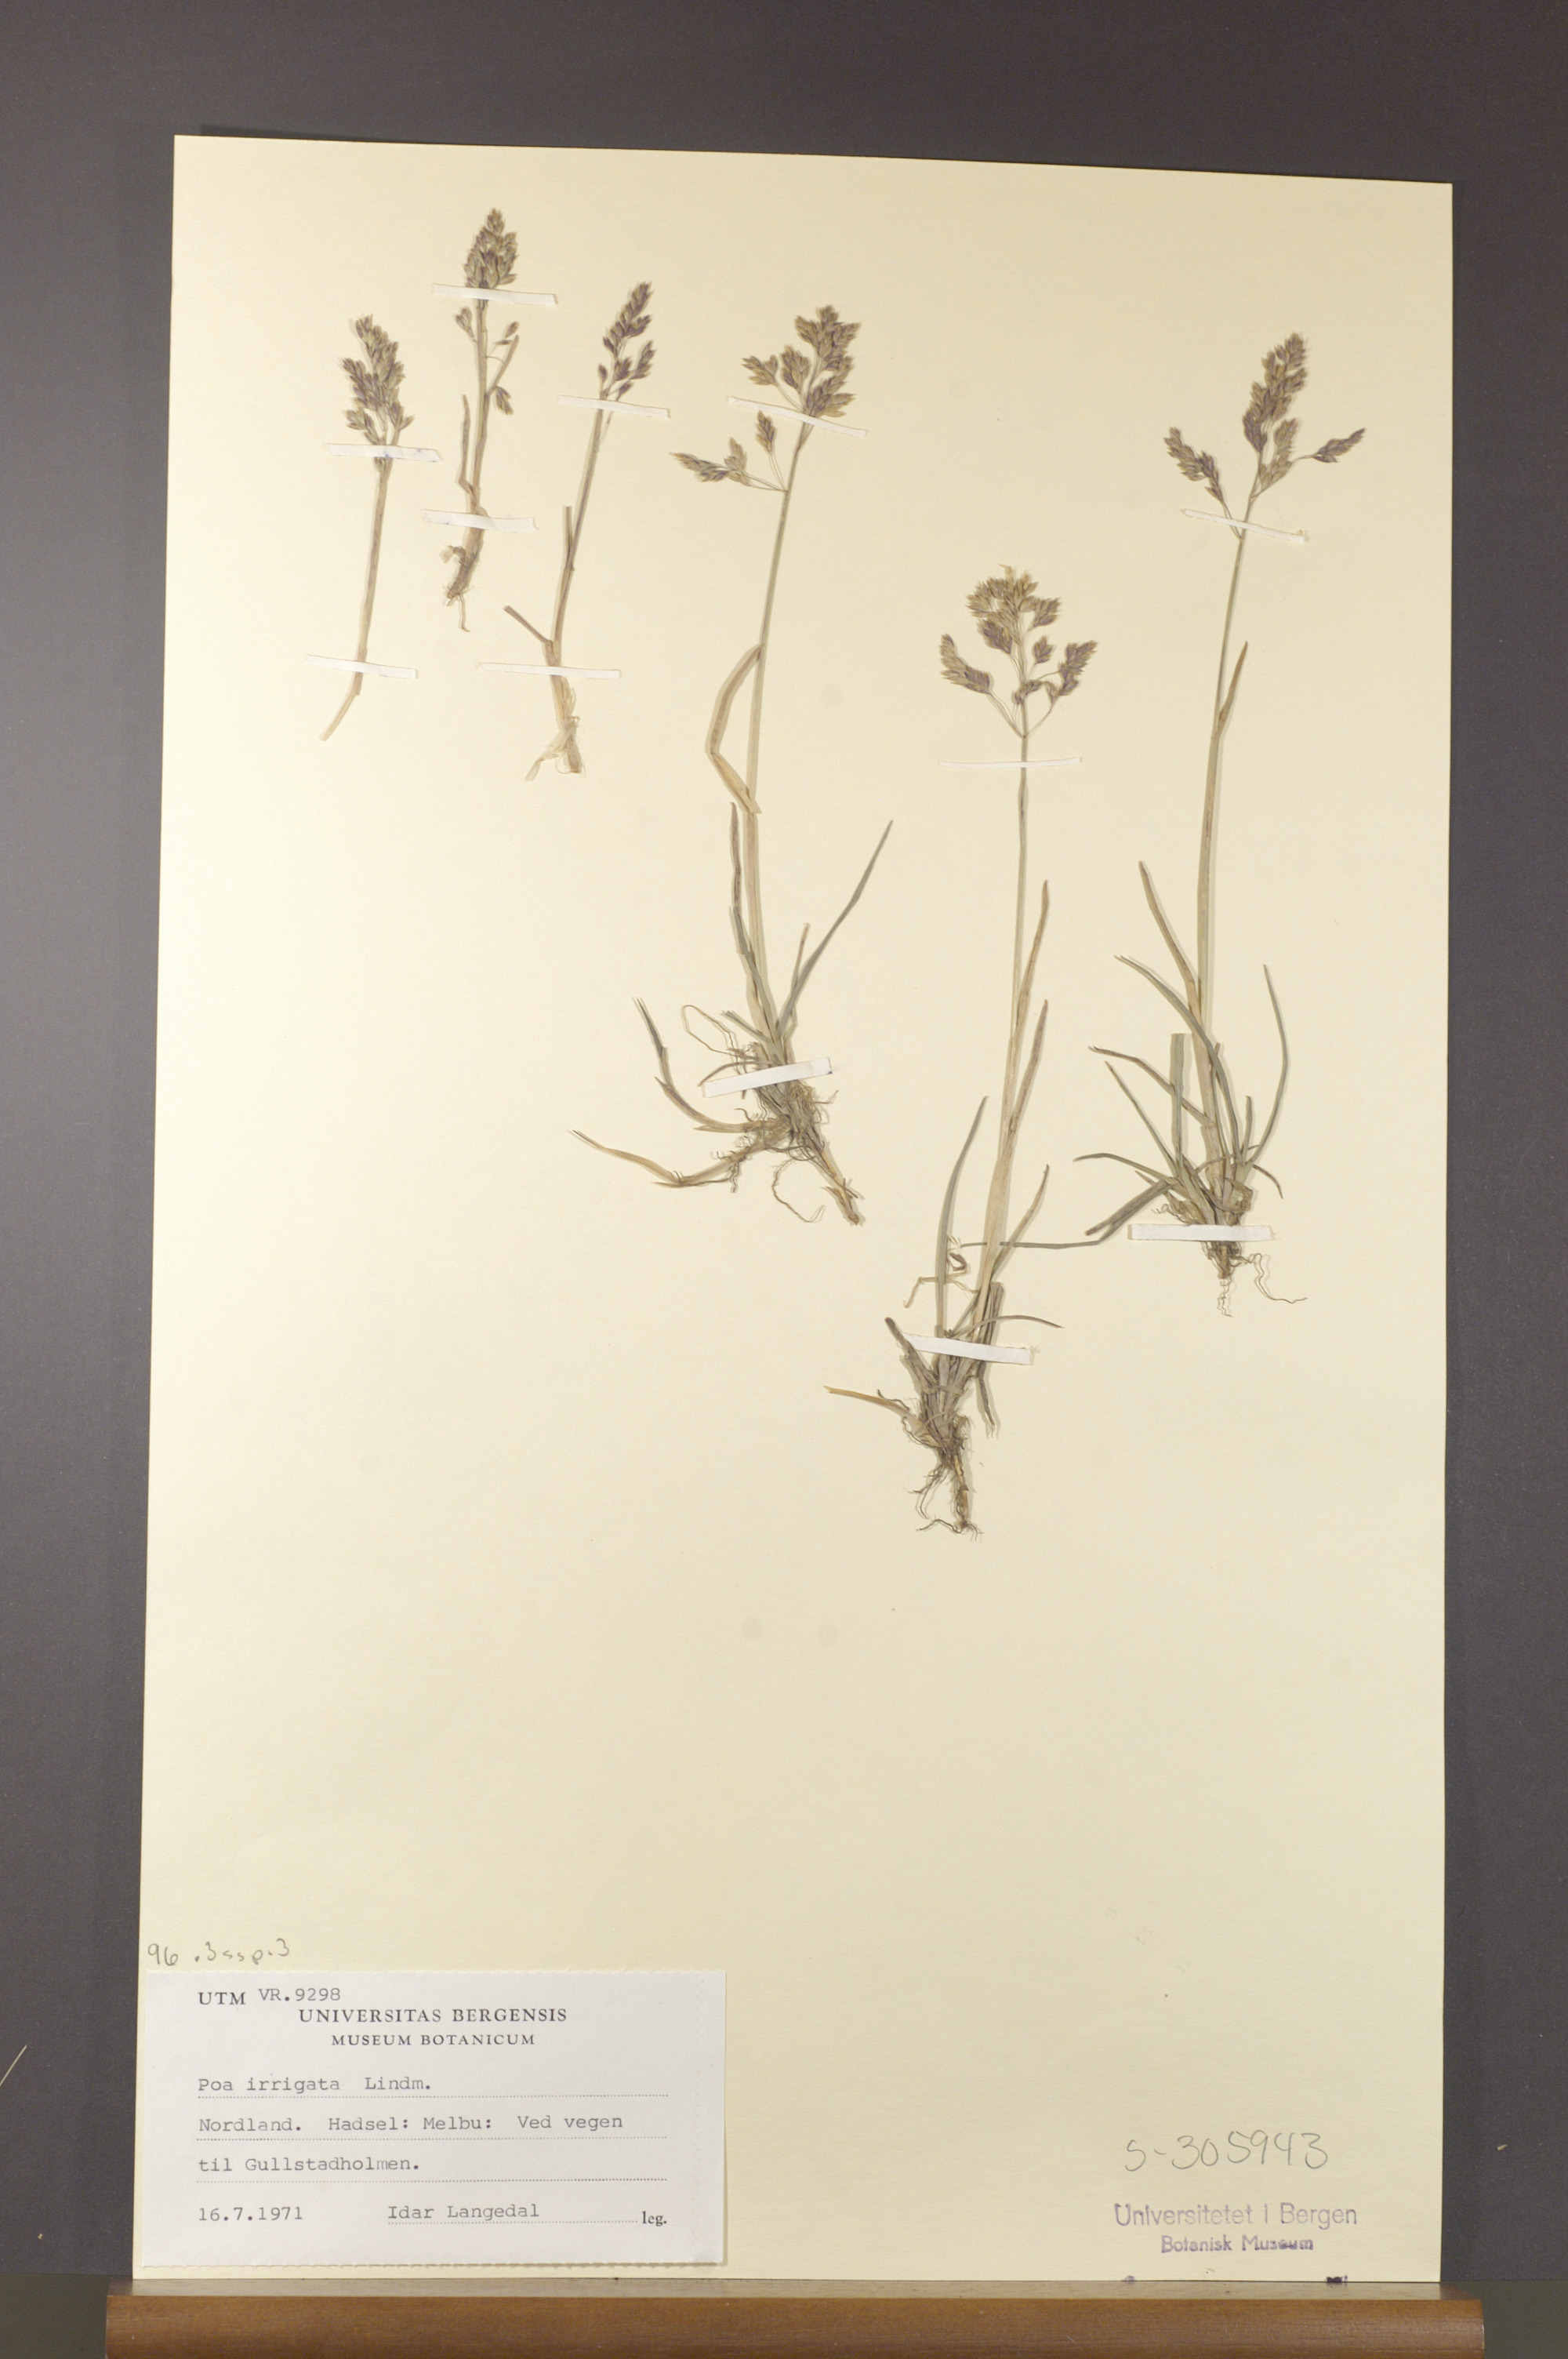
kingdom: Plantae
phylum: Tracheophyta
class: Liliopsida
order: Poales
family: Poaceae
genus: Poa
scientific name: Poa humilis
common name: Spreading meadow-grass
